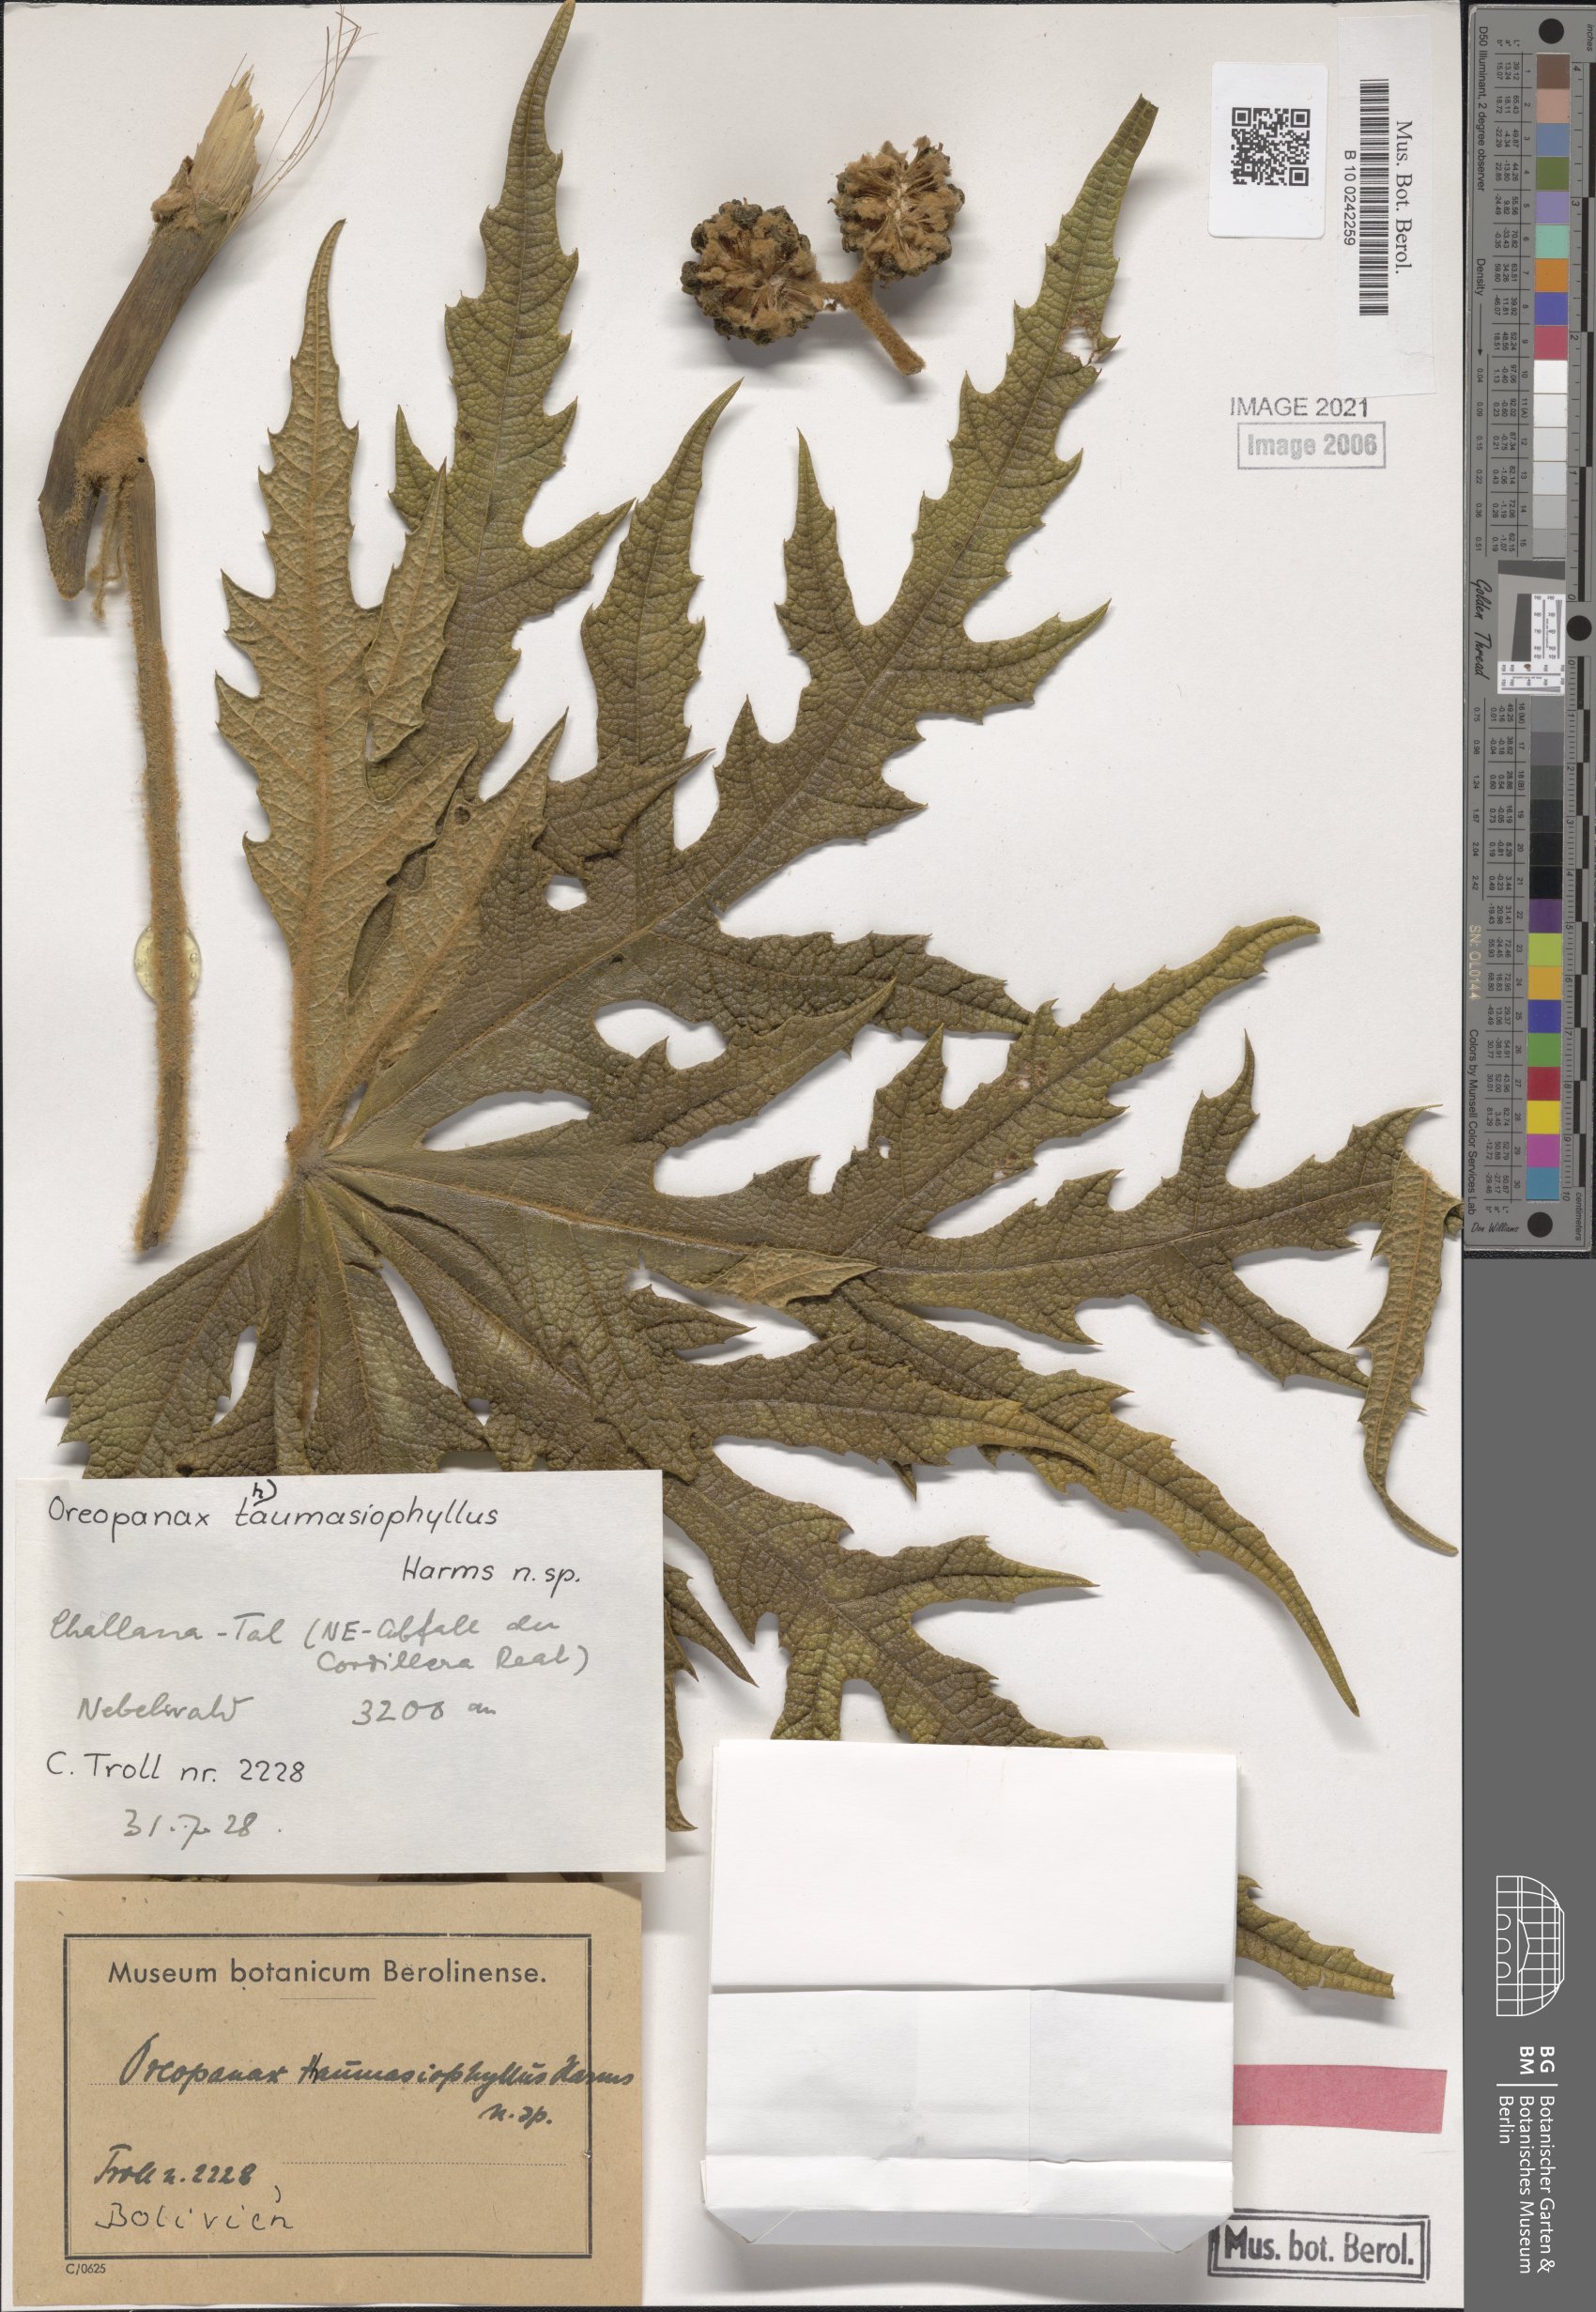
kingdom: Plantae
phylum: Tracheophyta
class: Magnoliopsida
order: Apiales
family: Araliaceae
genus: Oreopanax
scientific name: Oreopanax thaumasiophyllus
